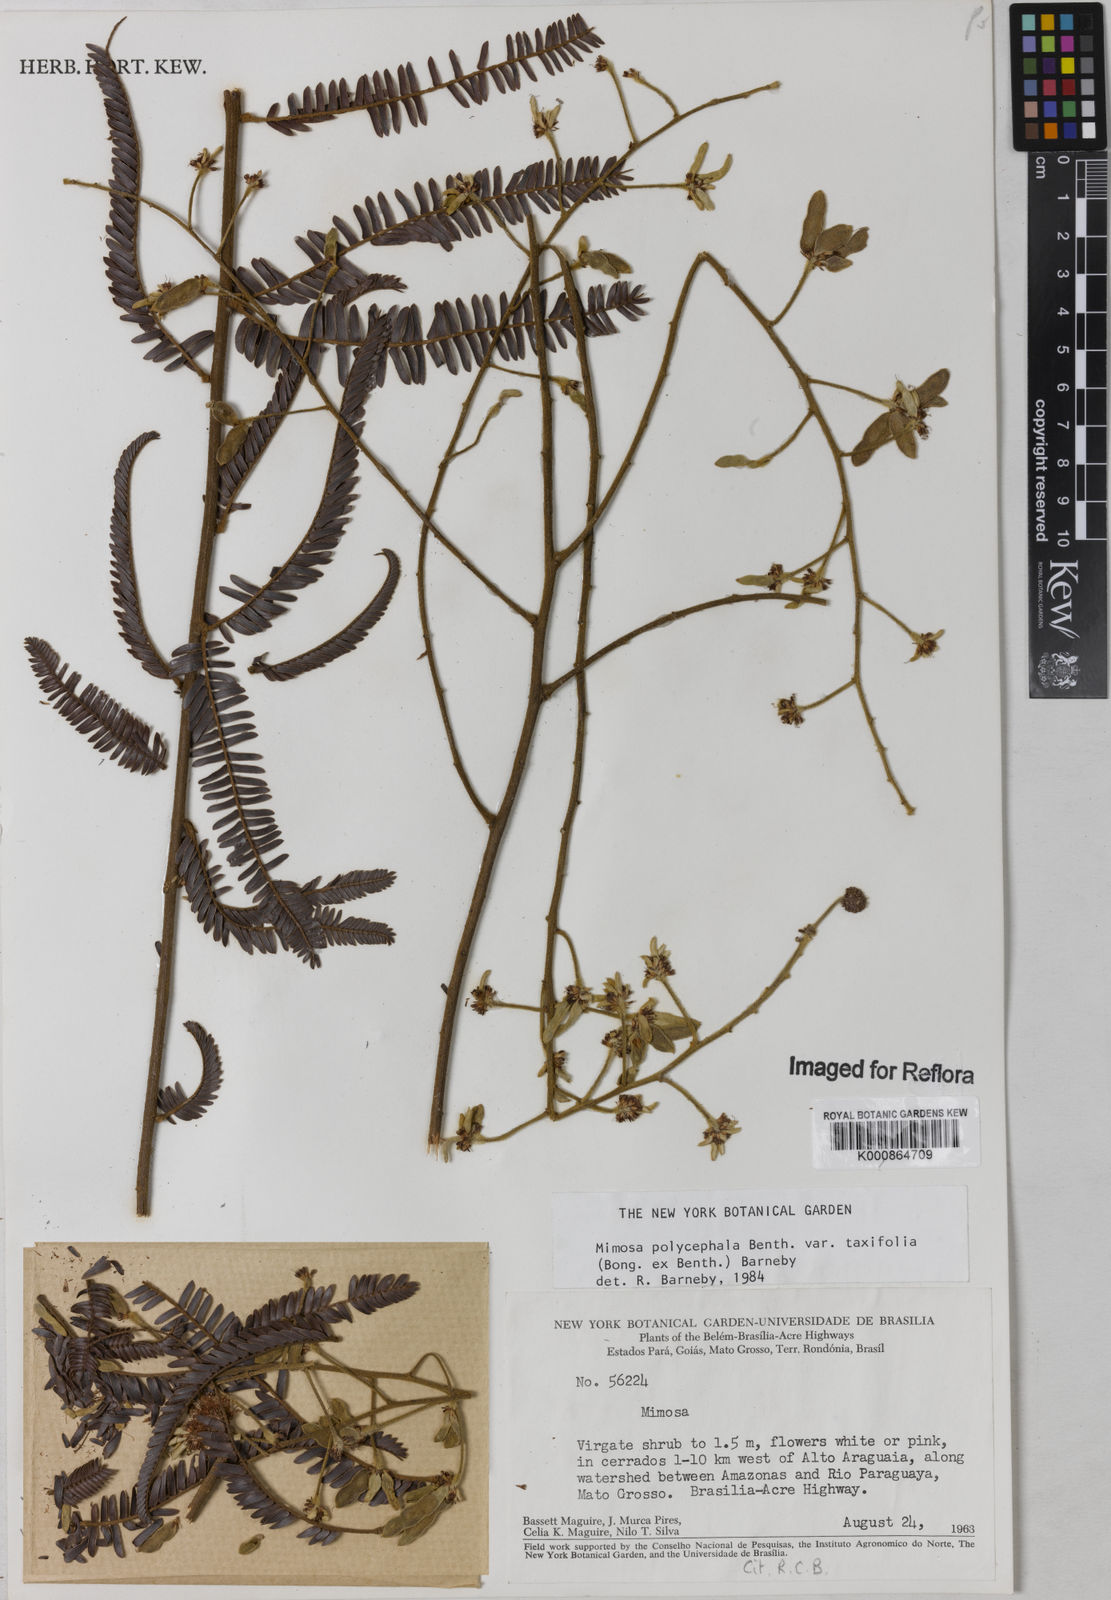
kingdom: Plantae
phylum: Tracheophyta
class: Magnoliopsida
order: Fabales
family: Fabaceae
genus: Mimosa
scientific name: Mimosa polycephala
